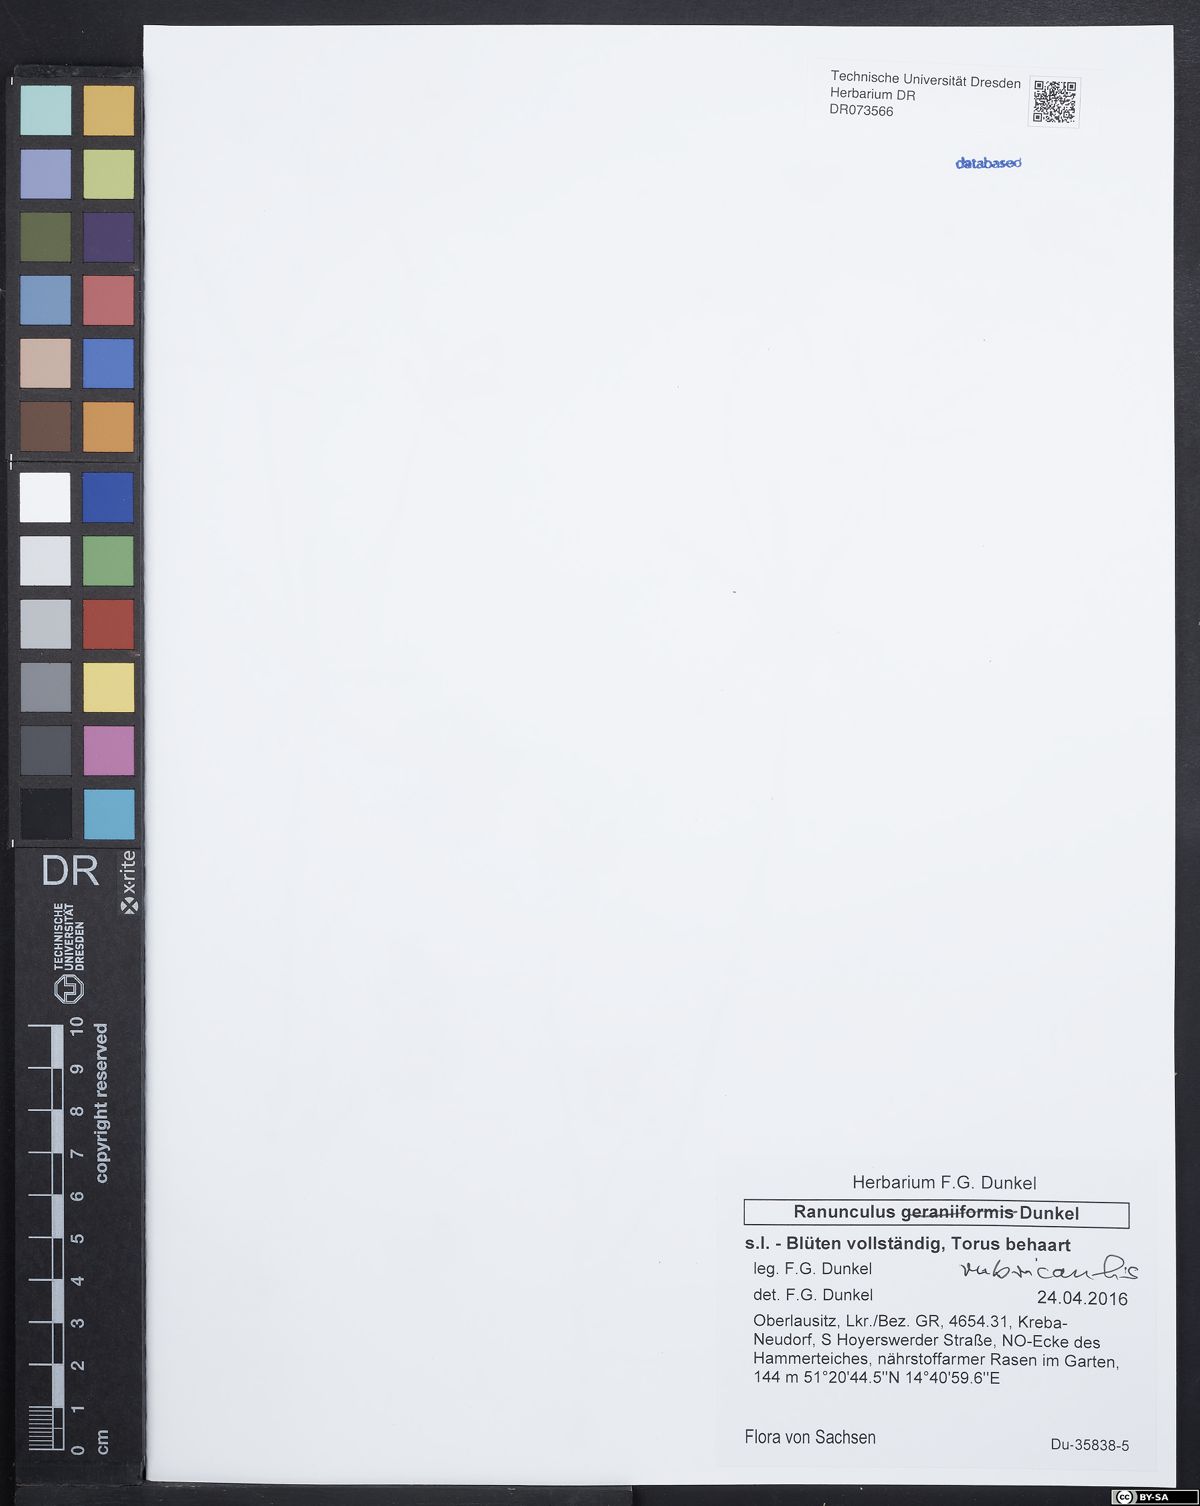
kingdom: Plantae
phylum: Tracheophyta
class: Magnoliopsida
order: Ranunculales
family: Ranunculaceae
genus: Ranunculus
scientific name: Ranunculus rubricaulis
